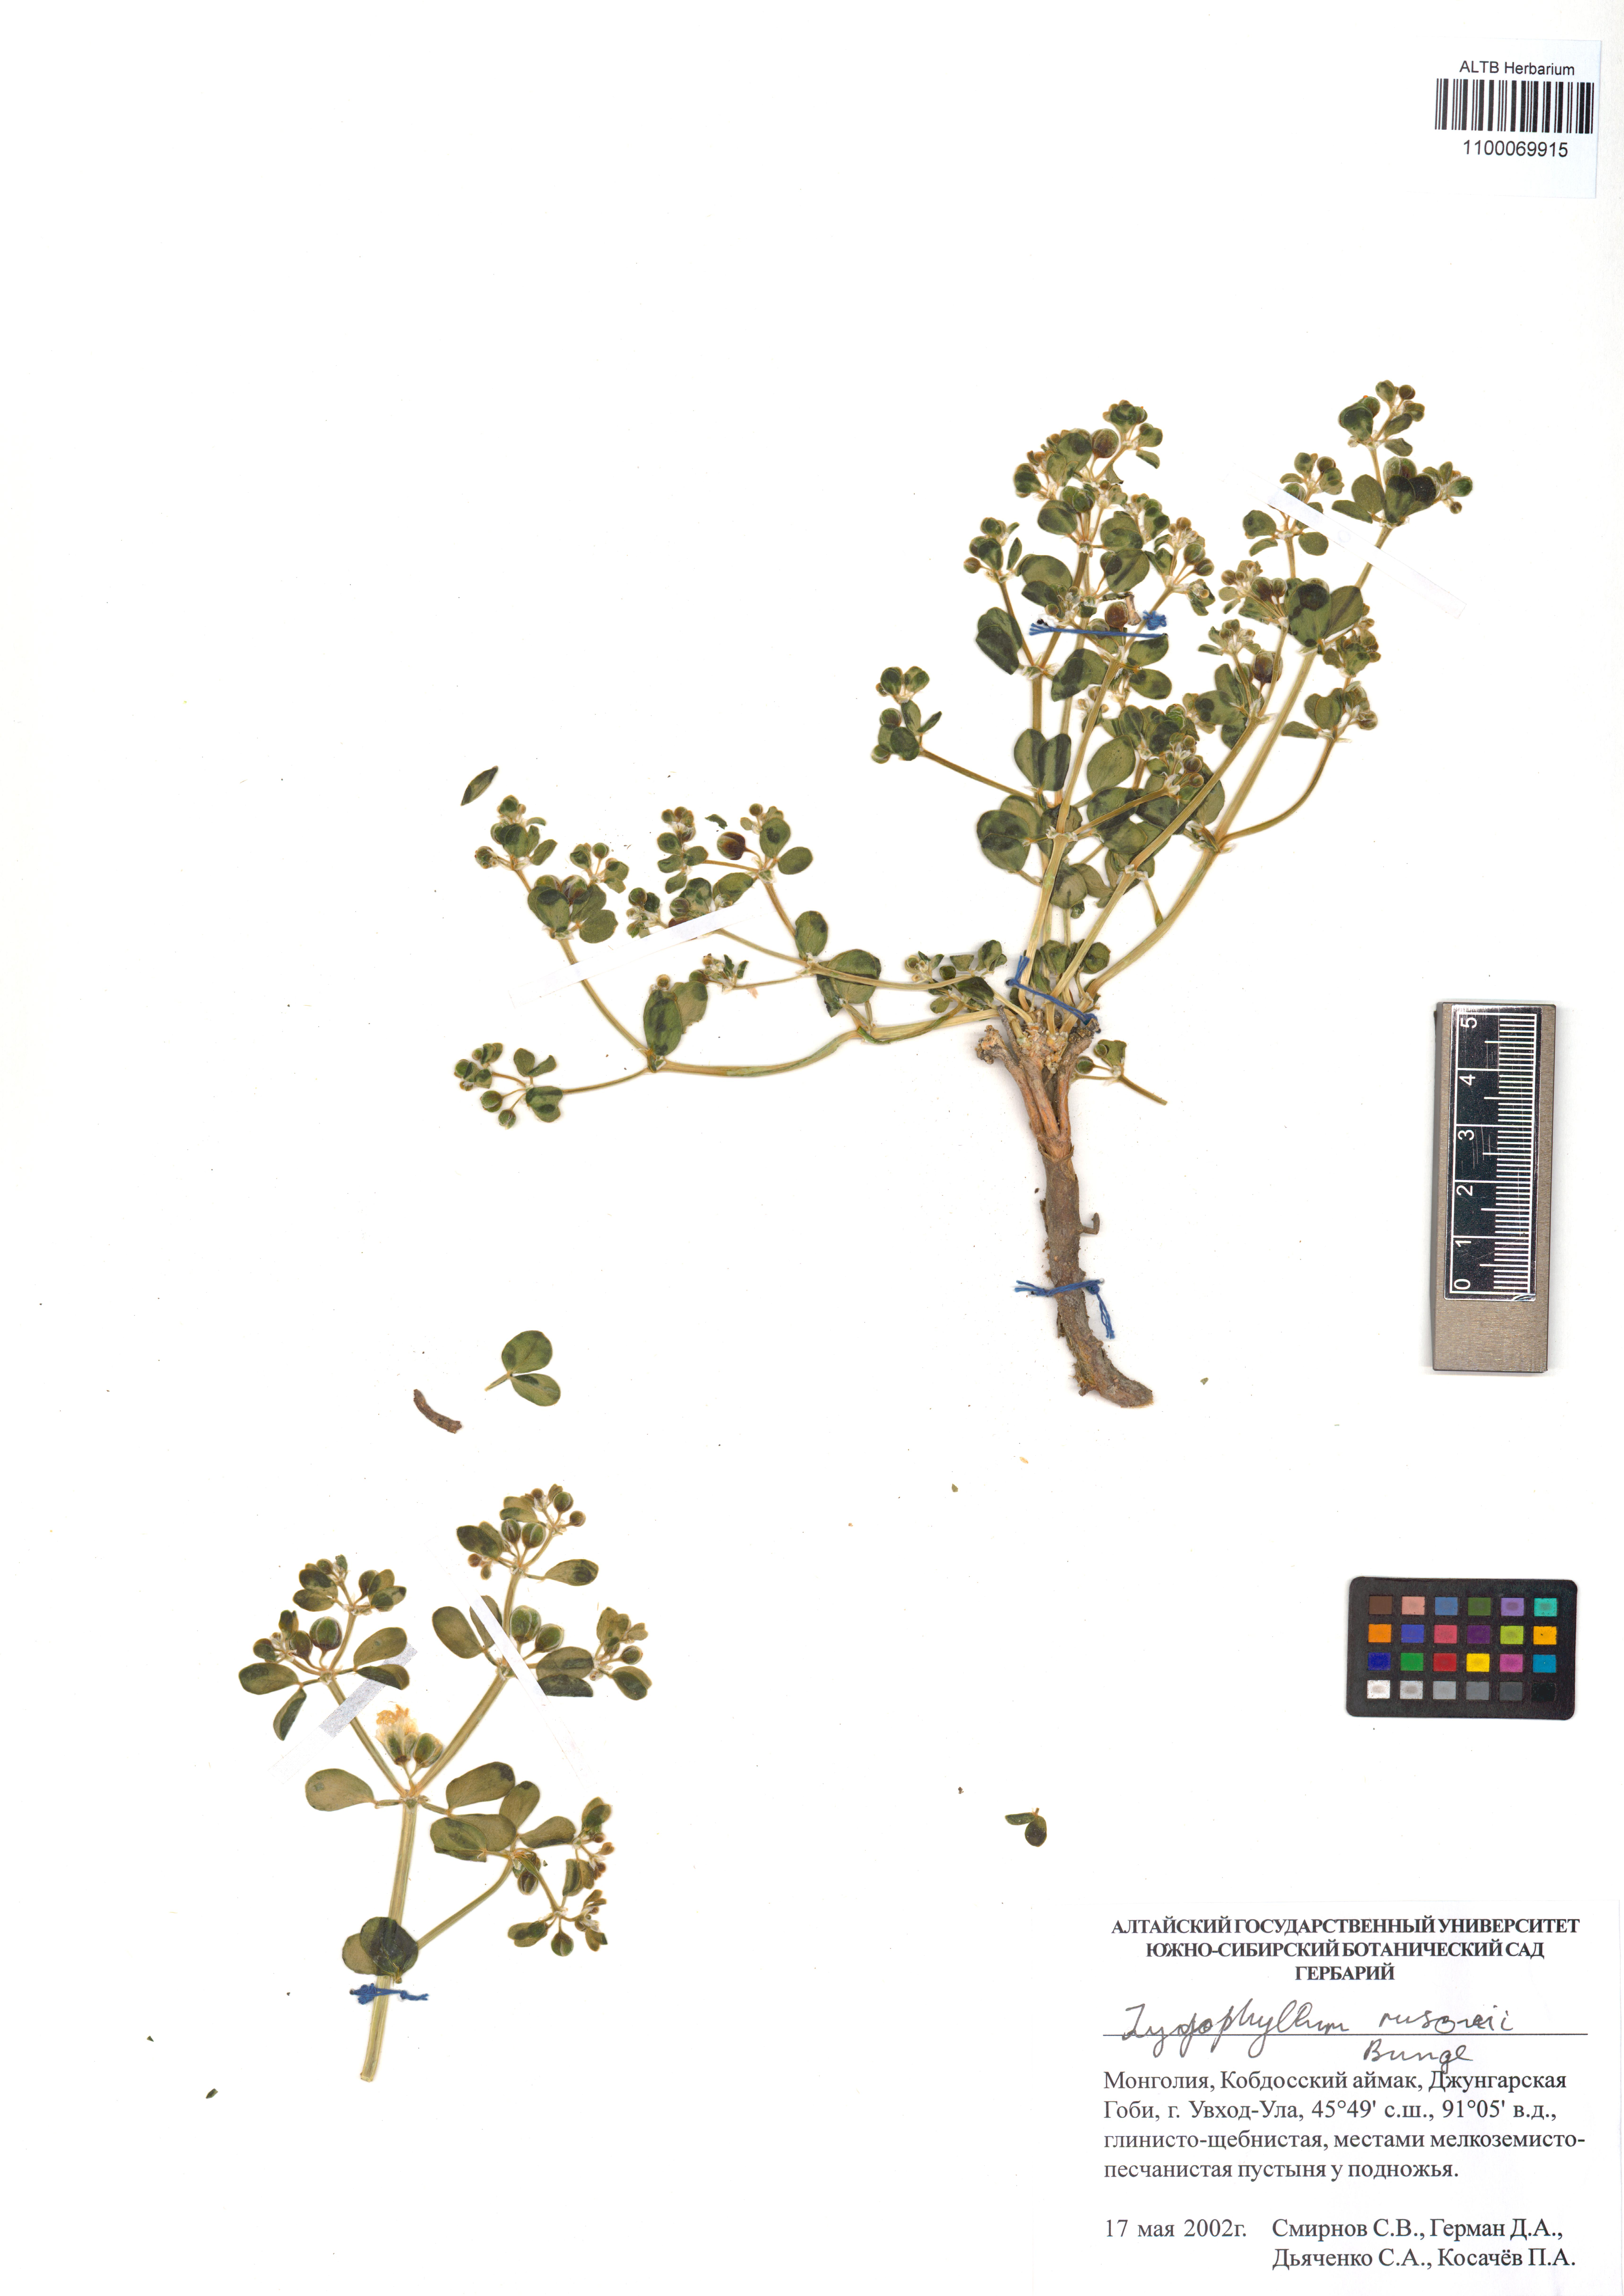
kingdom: Plantae
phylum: Tracheophyta
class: Magnoliopsida
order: Zygophyllales
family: Zygophyllaceae
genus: Zygophyllum
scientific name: Zygophyllum rosowii
